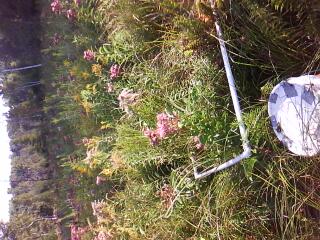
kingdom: Plantae
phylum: Tracheophyta
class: Magnoliopsida
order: Lamiales
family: Lamiaceae
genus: Mentha
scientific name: Mentha canadensis
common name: American corn mint
